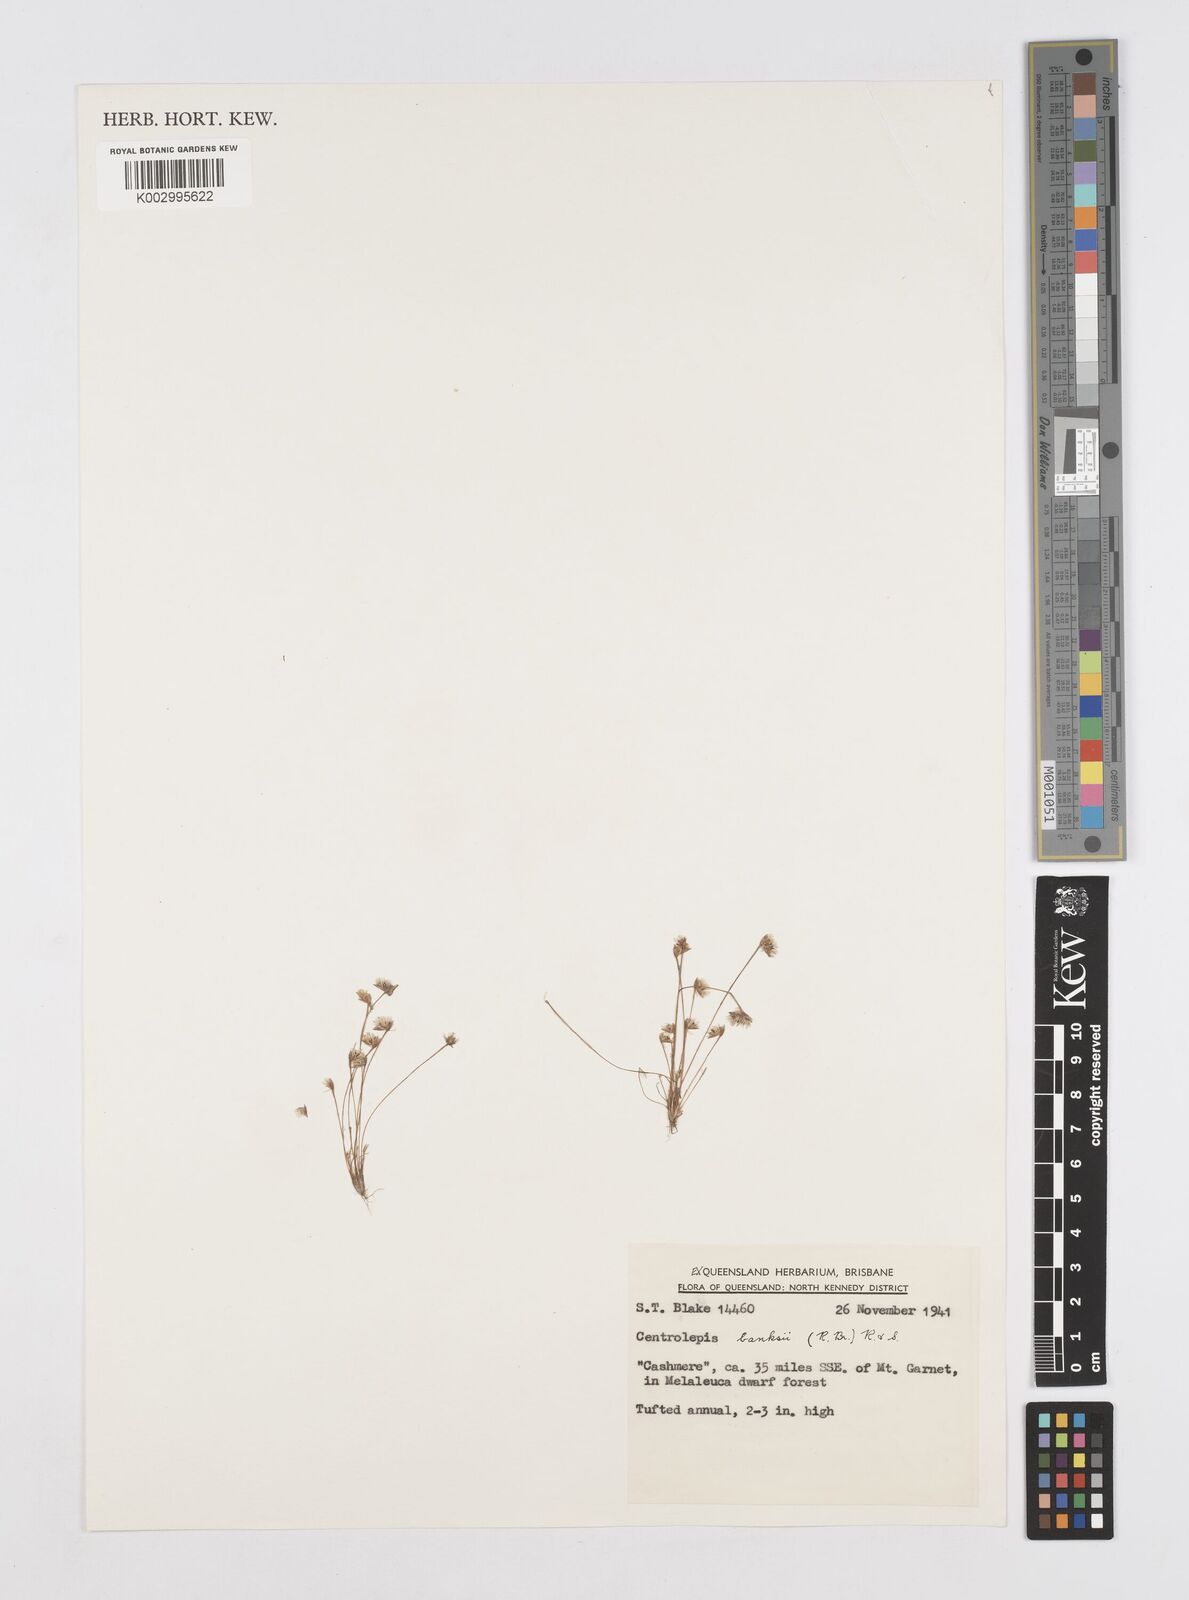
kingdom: Plantae
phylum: Tracheophyta
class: Liliopsida
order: Poales
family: Restionaceae
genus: Centrolepis
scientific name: Centrolepis banksii
